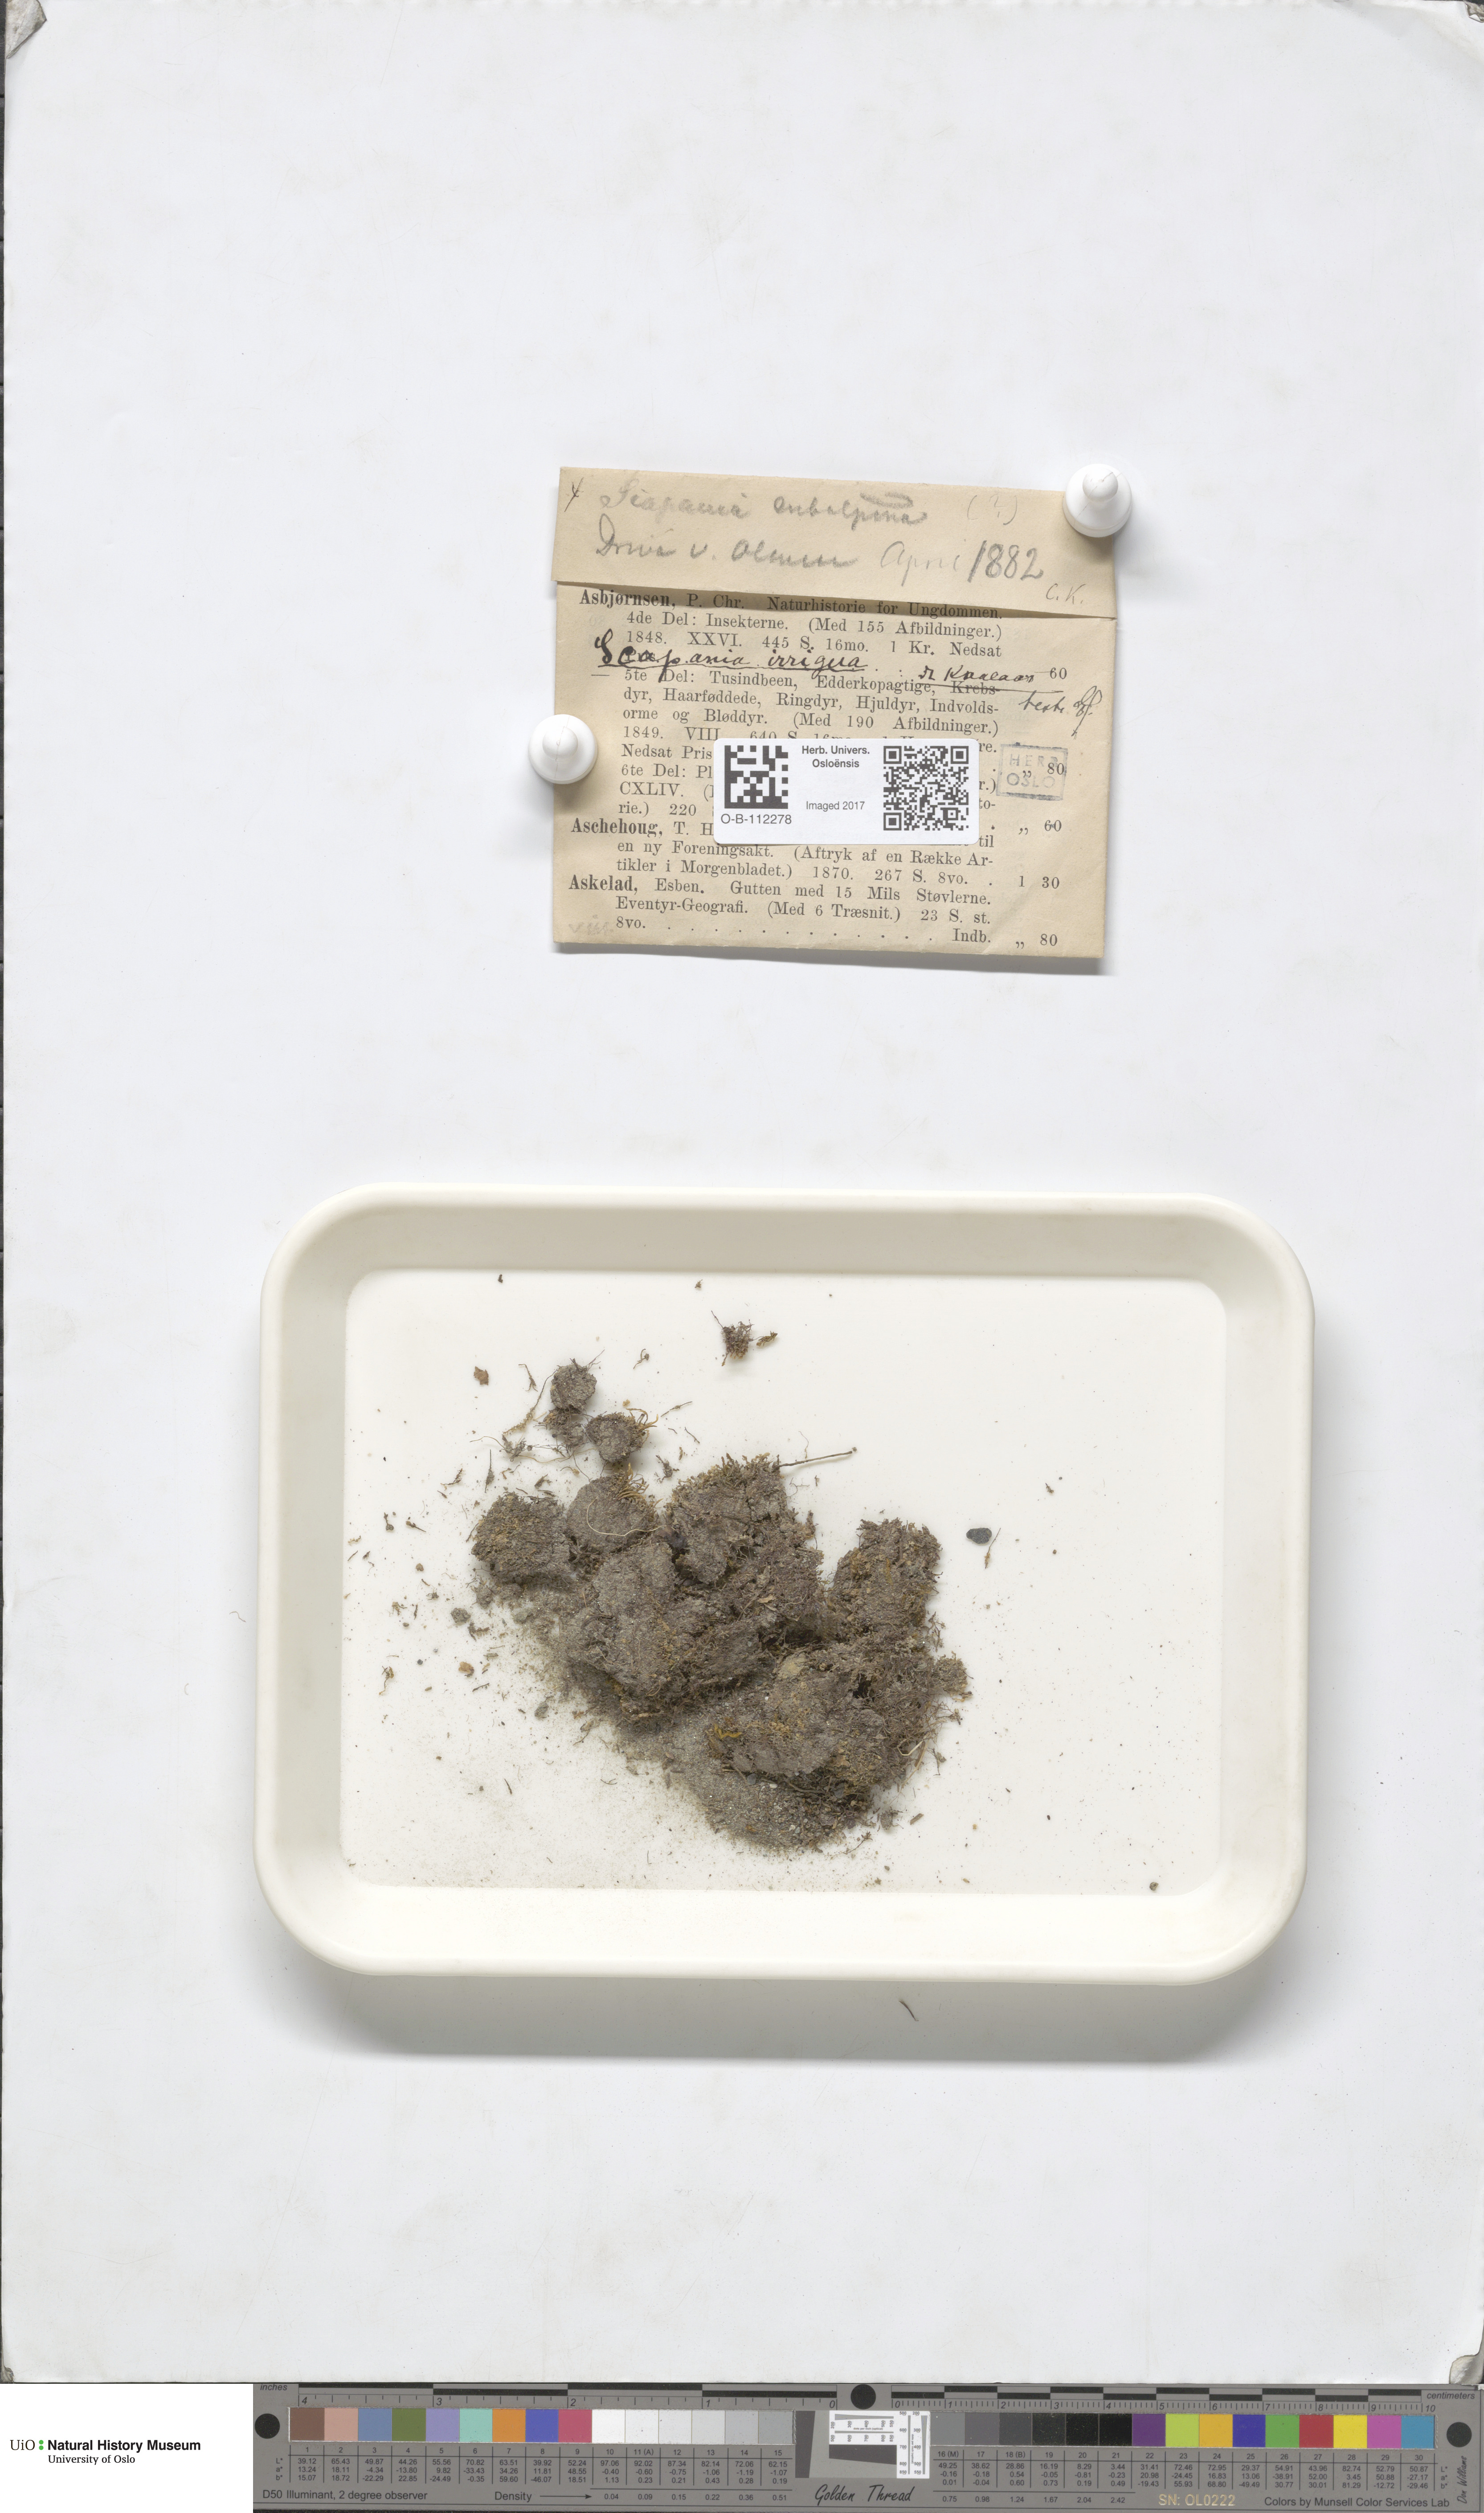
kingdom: Plantae
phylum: Marchantiophyta
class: Jungermanniopsida
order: Jungermanniales
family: Scapaniaceae
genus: Scapania
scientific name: Scapania subalpina
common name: Subalpine earwort
